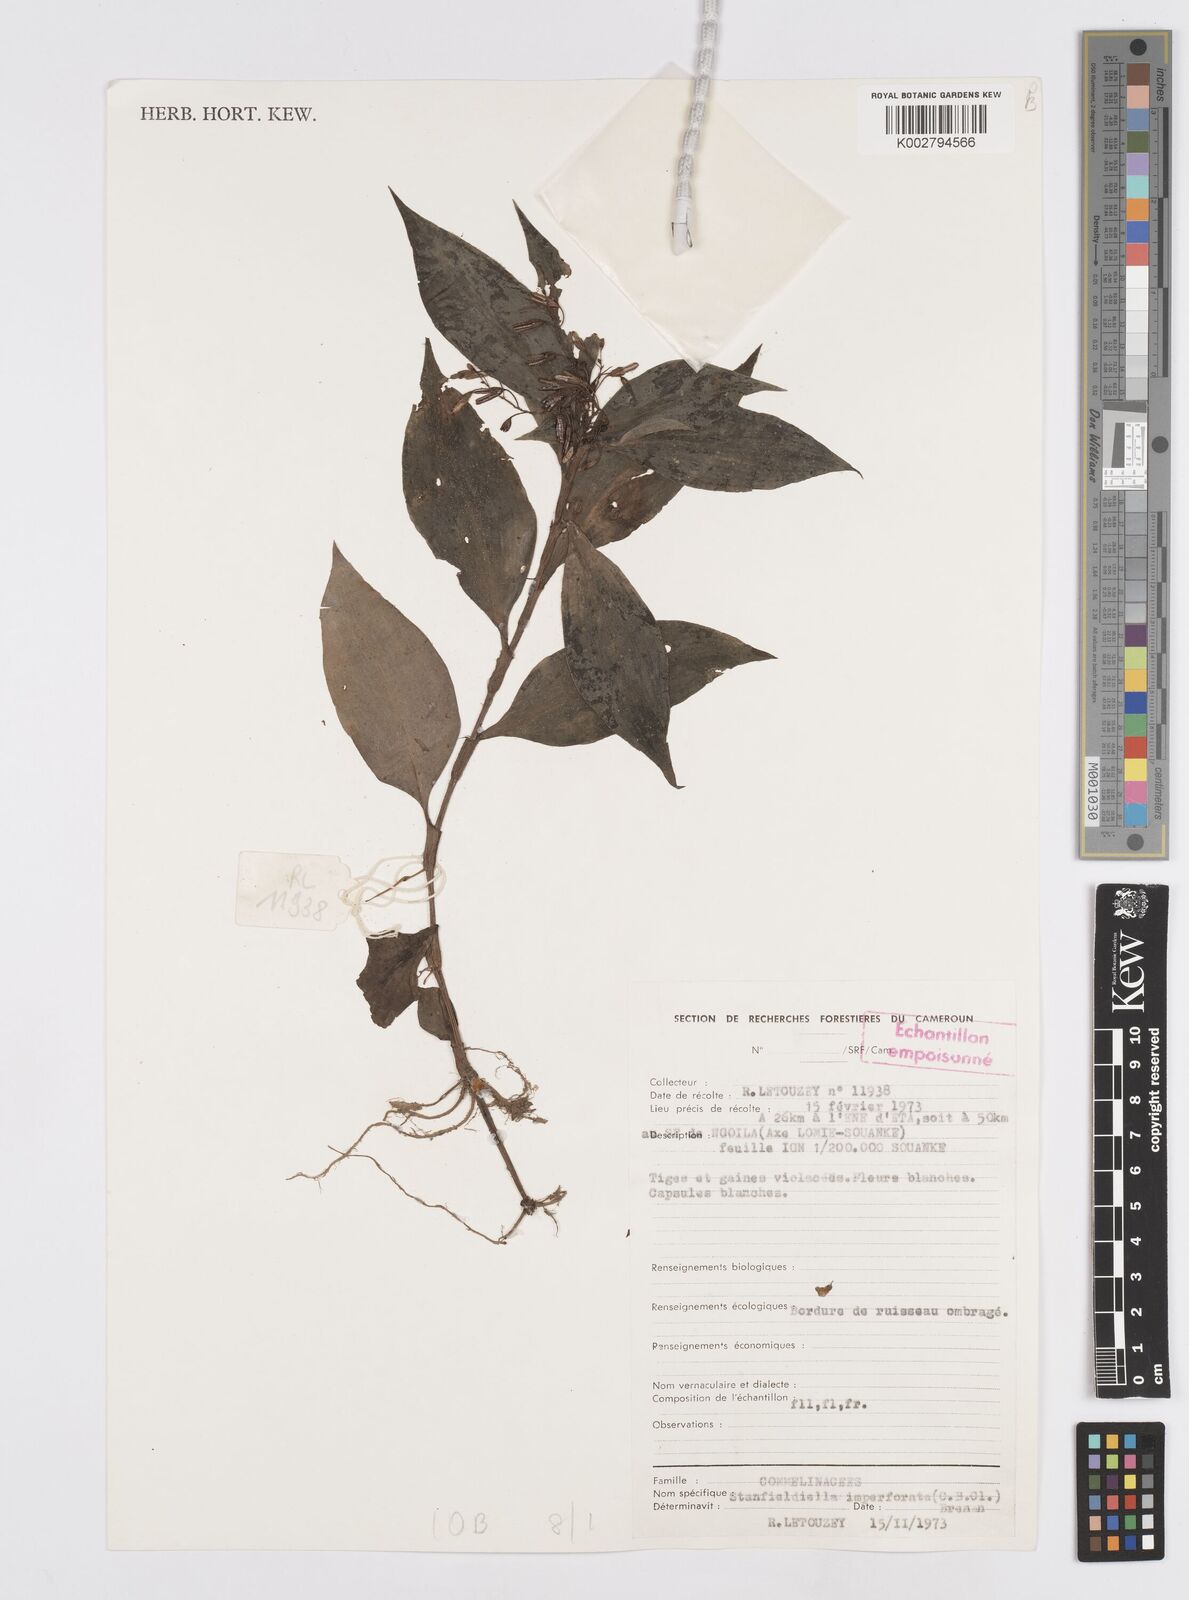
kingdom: Plantae
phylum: Tracheophyta
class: Liliopsida
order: Commelinales
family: Commelinaceae
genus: Stanfieldiella
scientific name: Stanfieldiella imperforata
